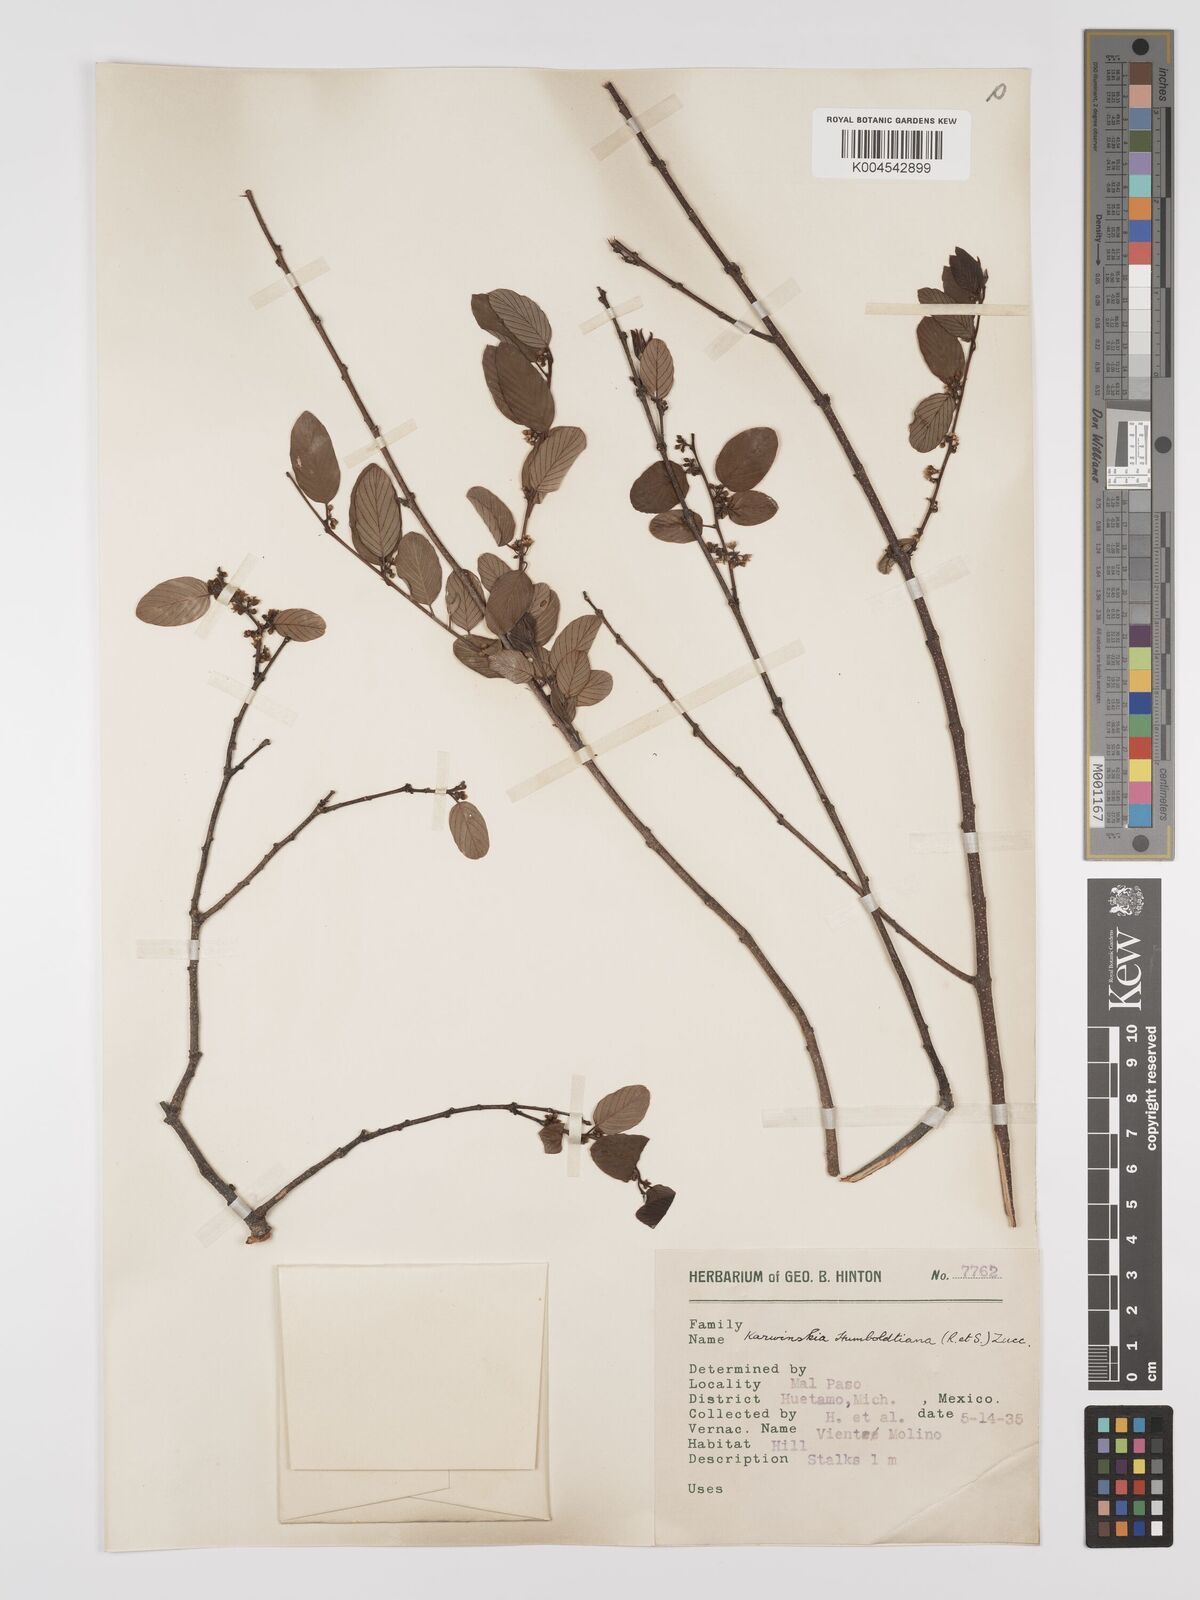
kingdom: Plantae
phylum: Tracheophyta
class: Magnoliopsida
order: Rosales
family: Rhamnaceae
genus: Karwinskia
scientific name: Karwinskia humboldtiana
